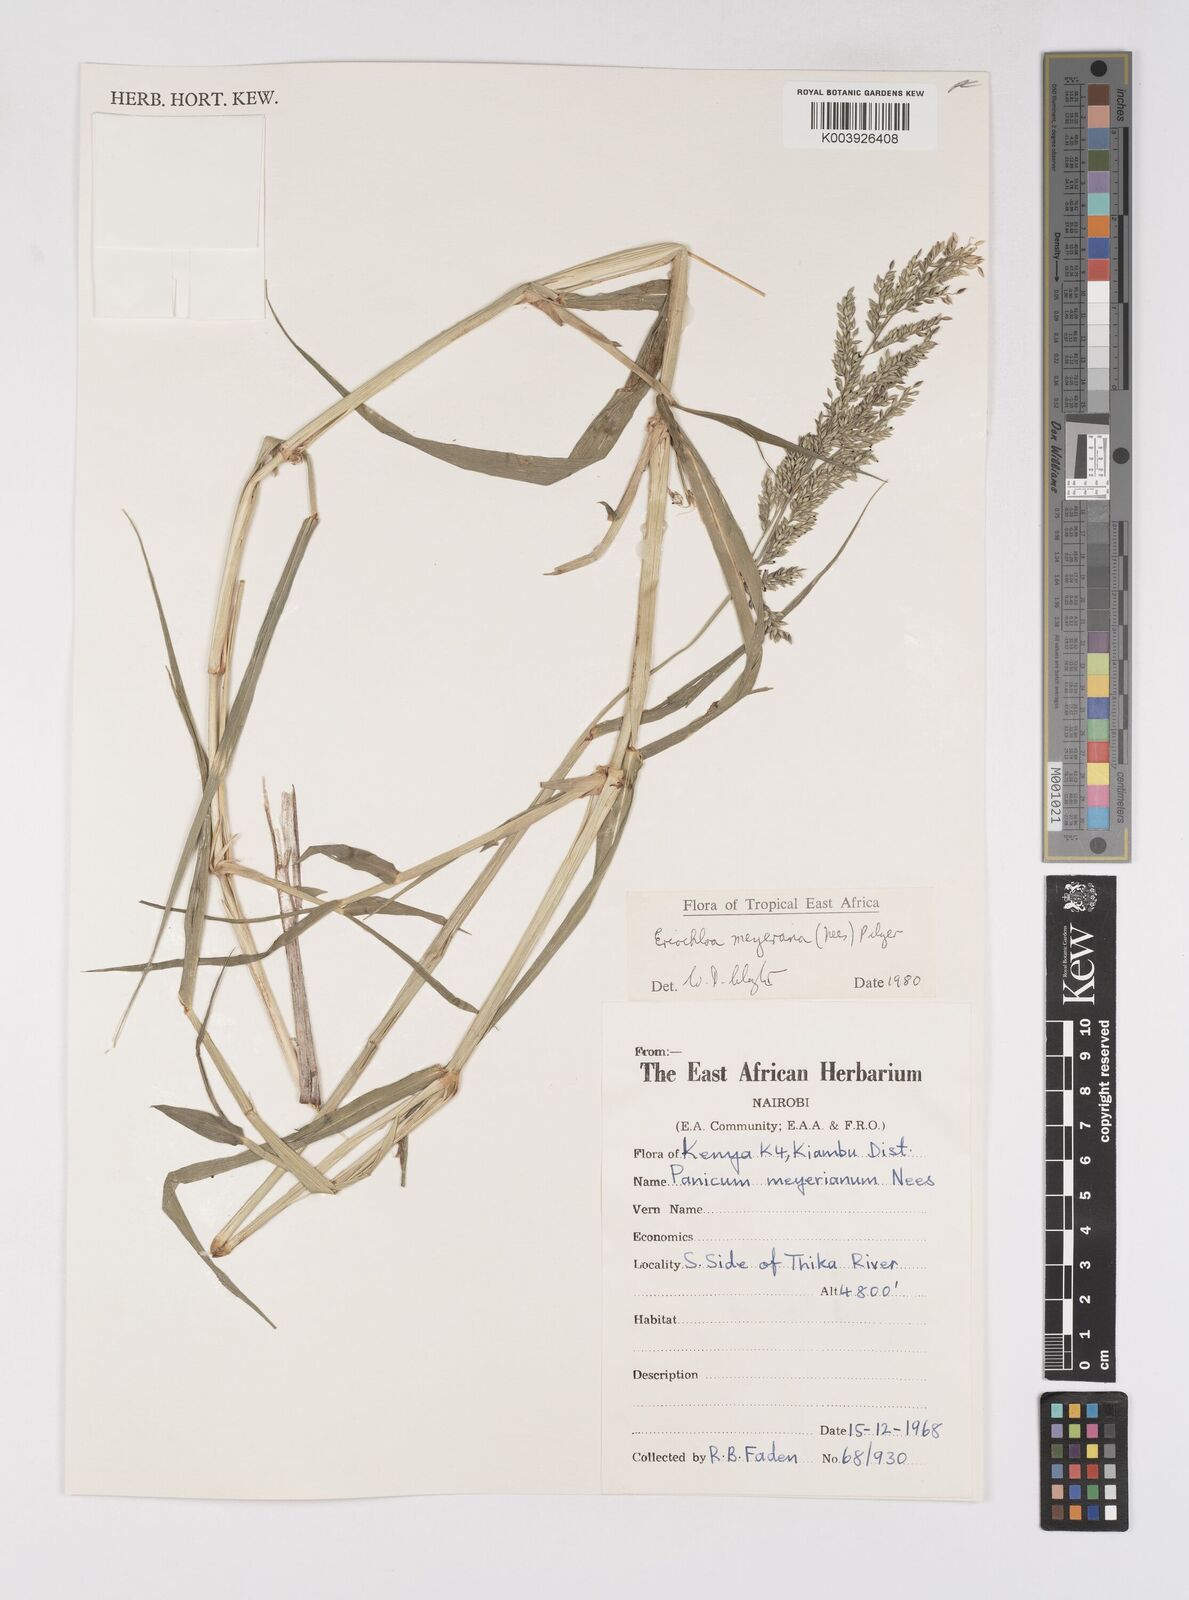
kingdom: Plantae
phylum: Tracheophyta
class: Liliopsida
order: Poales
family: Poaceae
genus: Eriochloa
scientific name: Eriochloa meyeriana
